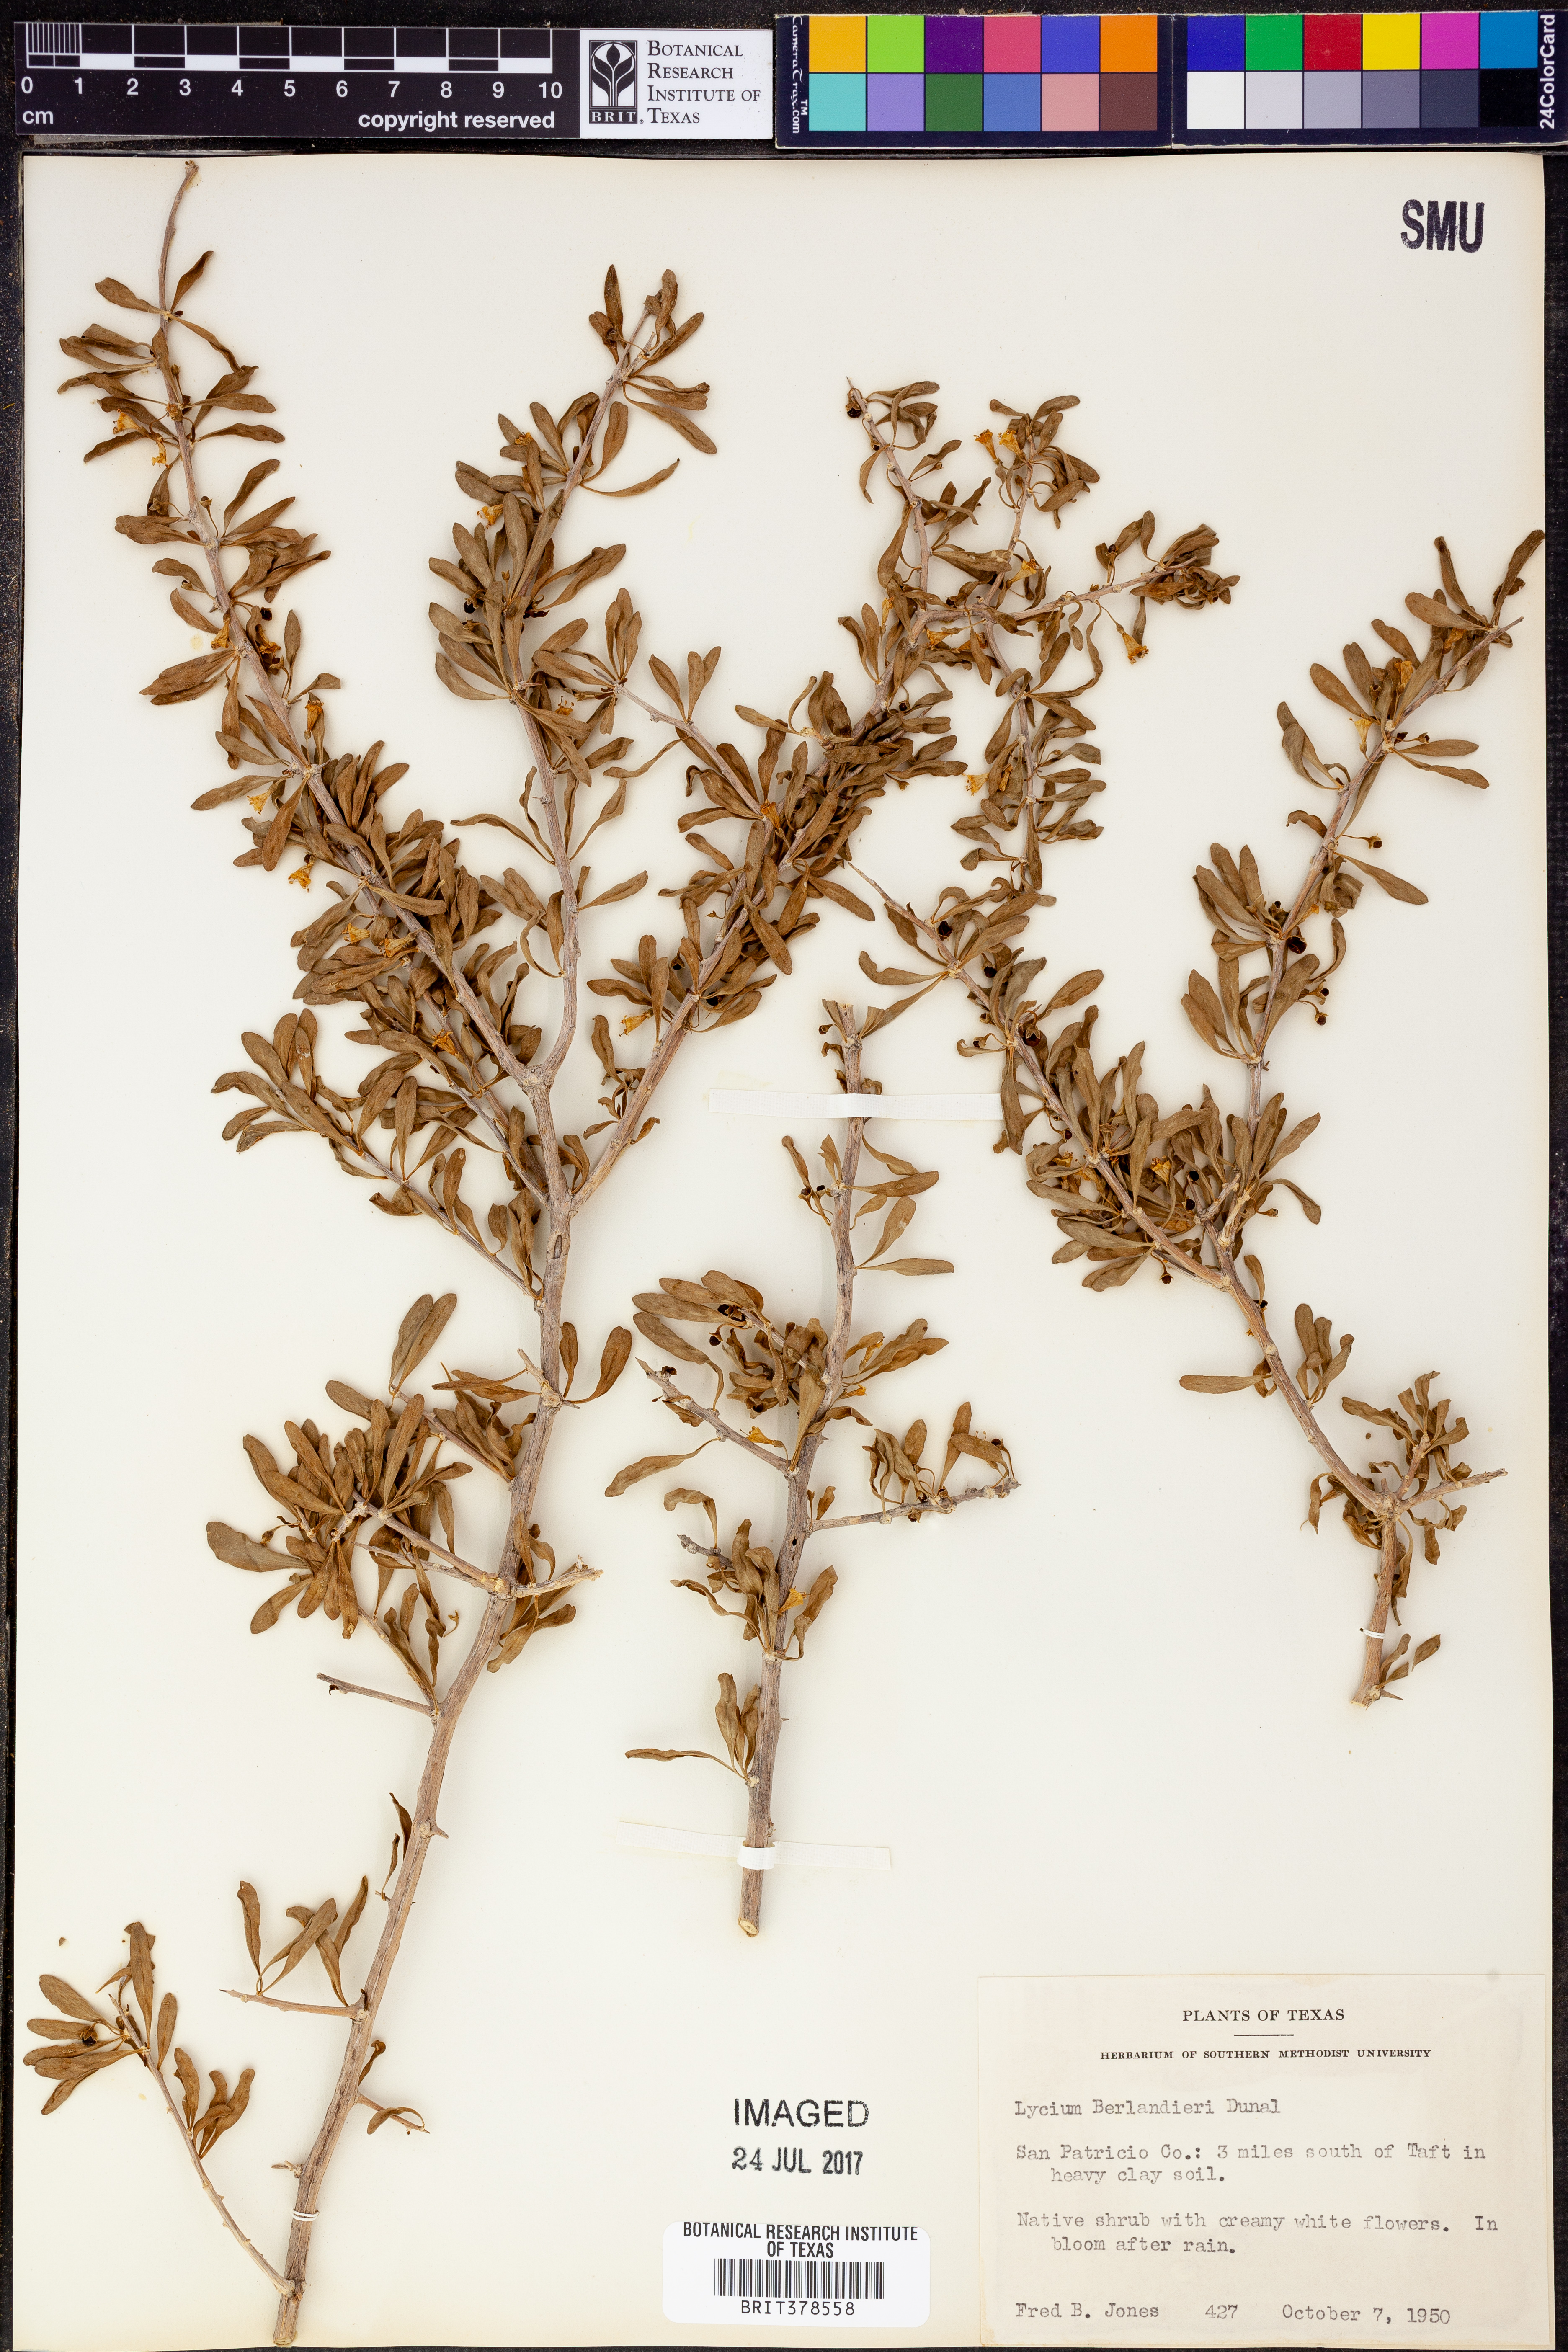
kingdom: Plantae
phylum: Tracheophyta
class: Magnoliopsida
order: Solanales
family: Solanaceae
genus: Lycium
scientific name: Lycium berlandieri
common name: Berlandier wolfberry
